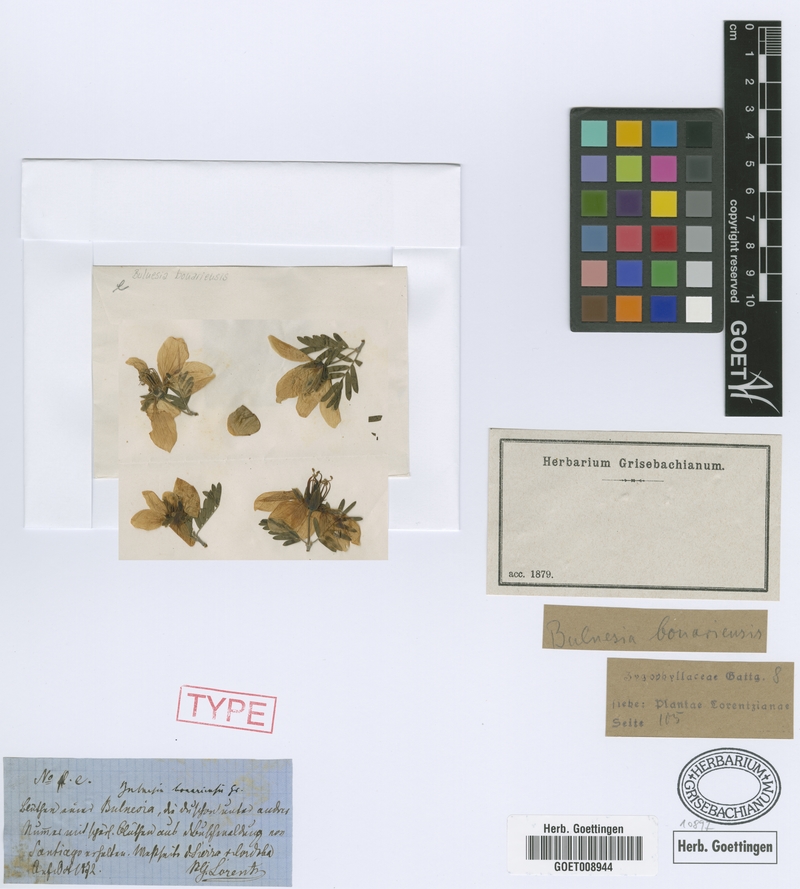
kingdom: Plantae
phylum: Tracheophyta
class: Magnoliopsida
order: Zygophyllales
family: Zygophyllaceae
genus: Gonopterodendron
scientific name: Gonopterodendron bonariense
